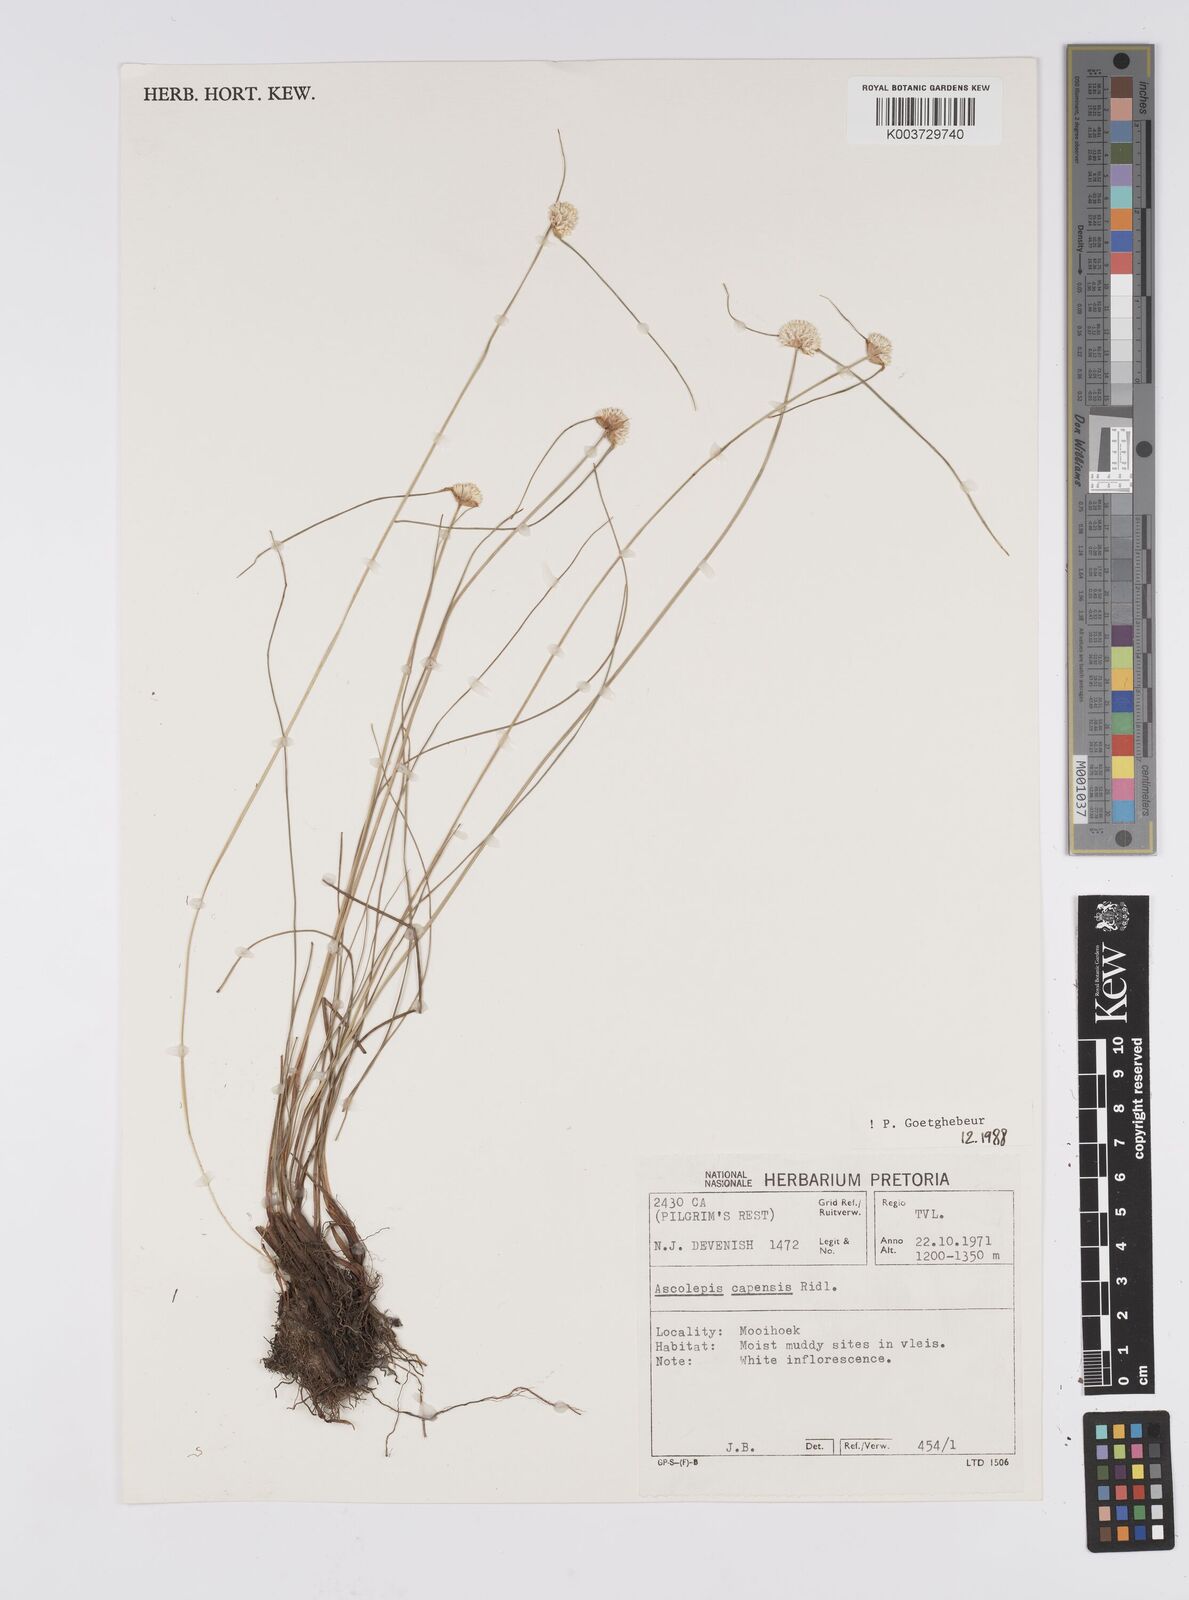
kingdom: Plantae
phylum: Tracheophyta
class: Liliopsida
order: Poales
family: Cyperaceae
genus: Cyperus
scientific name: Cyperus capensis
